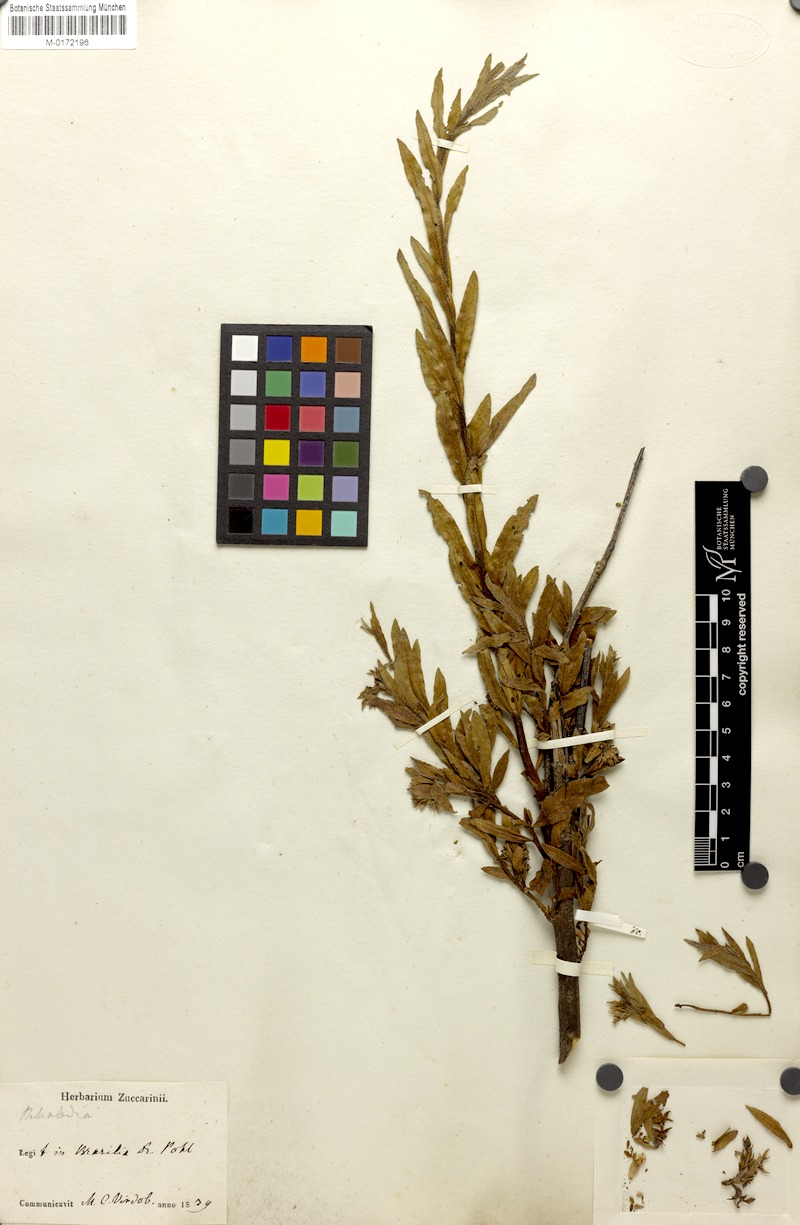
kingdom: Plantae
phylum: Tracheophyta
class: Magnoliopsida
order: Solanales
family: Solanaceae
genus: Metternichia
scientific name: Metternichia princeps
